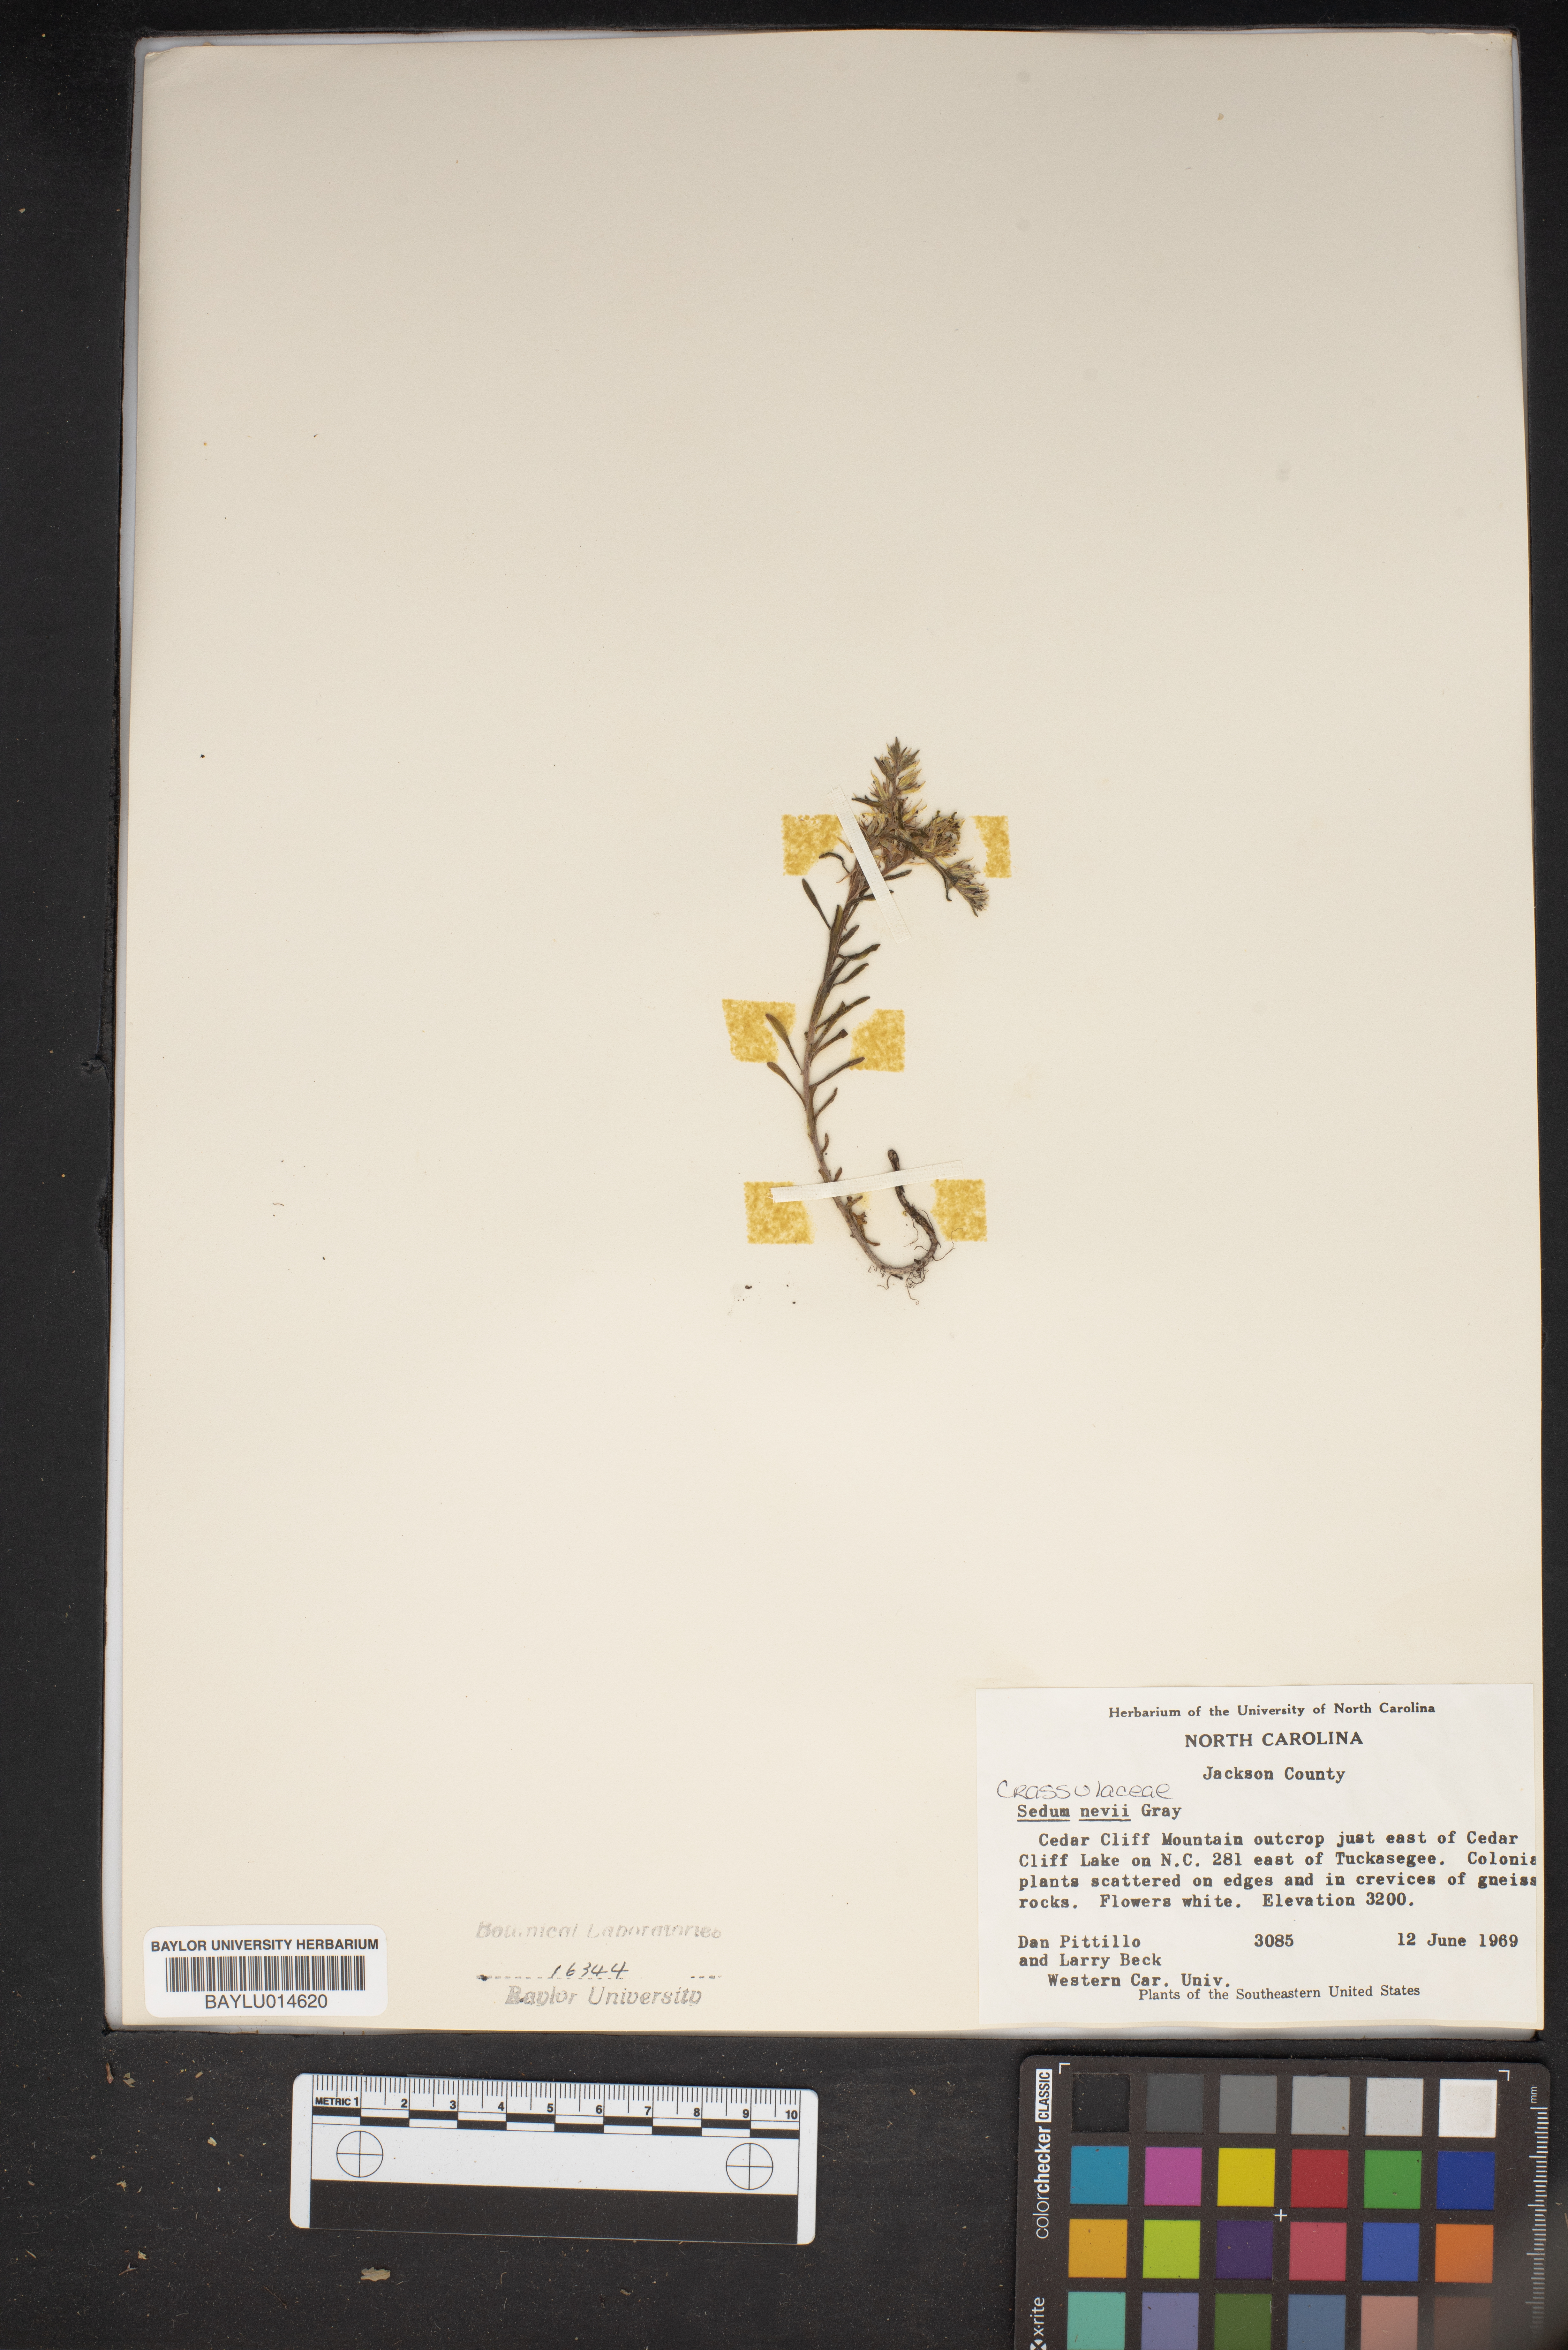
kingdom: Plantae
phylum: Tracheophyta
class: Magnoliopsida
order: Saxifragales
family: Crassulaceae
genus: Sedum
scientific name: Sedum nevii
